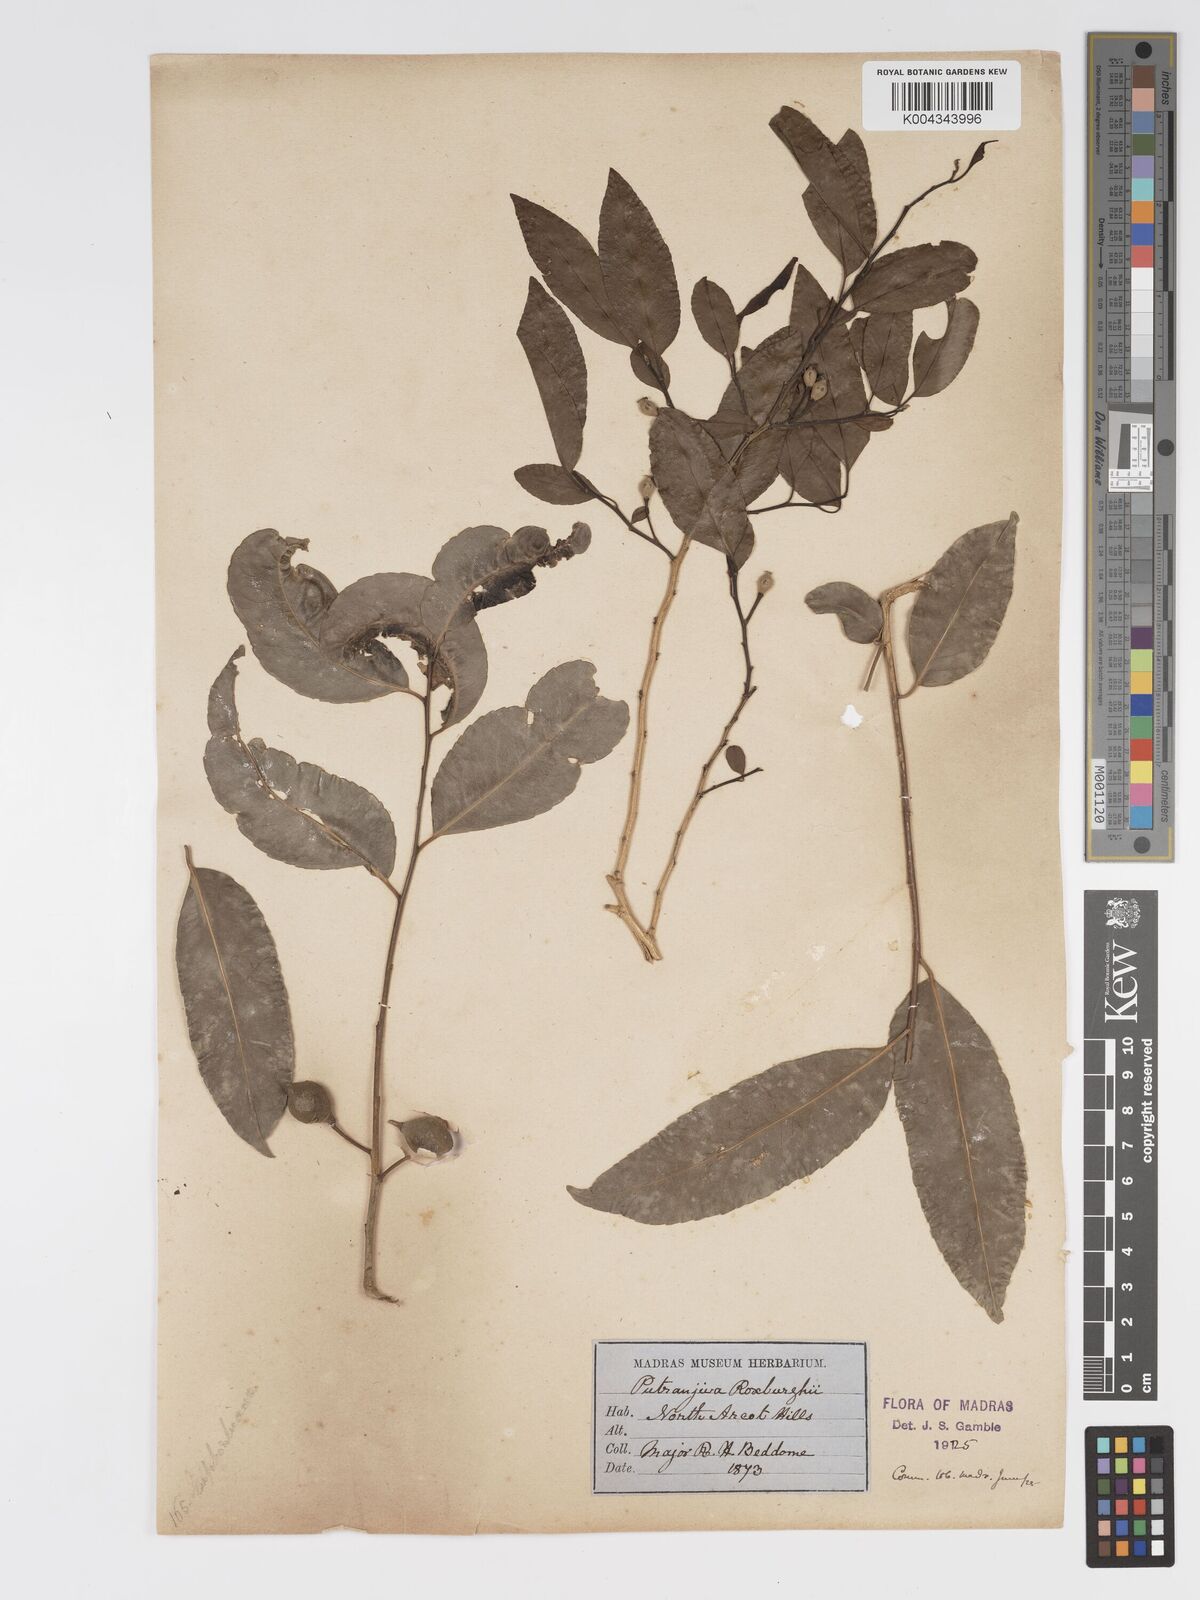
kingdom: Plantae
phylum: Tracheophyta
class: Magnoliopsida
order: Malpighiales
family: Putranjivaceae
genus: Putranjiva
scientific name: Putranjiva roxburghii
